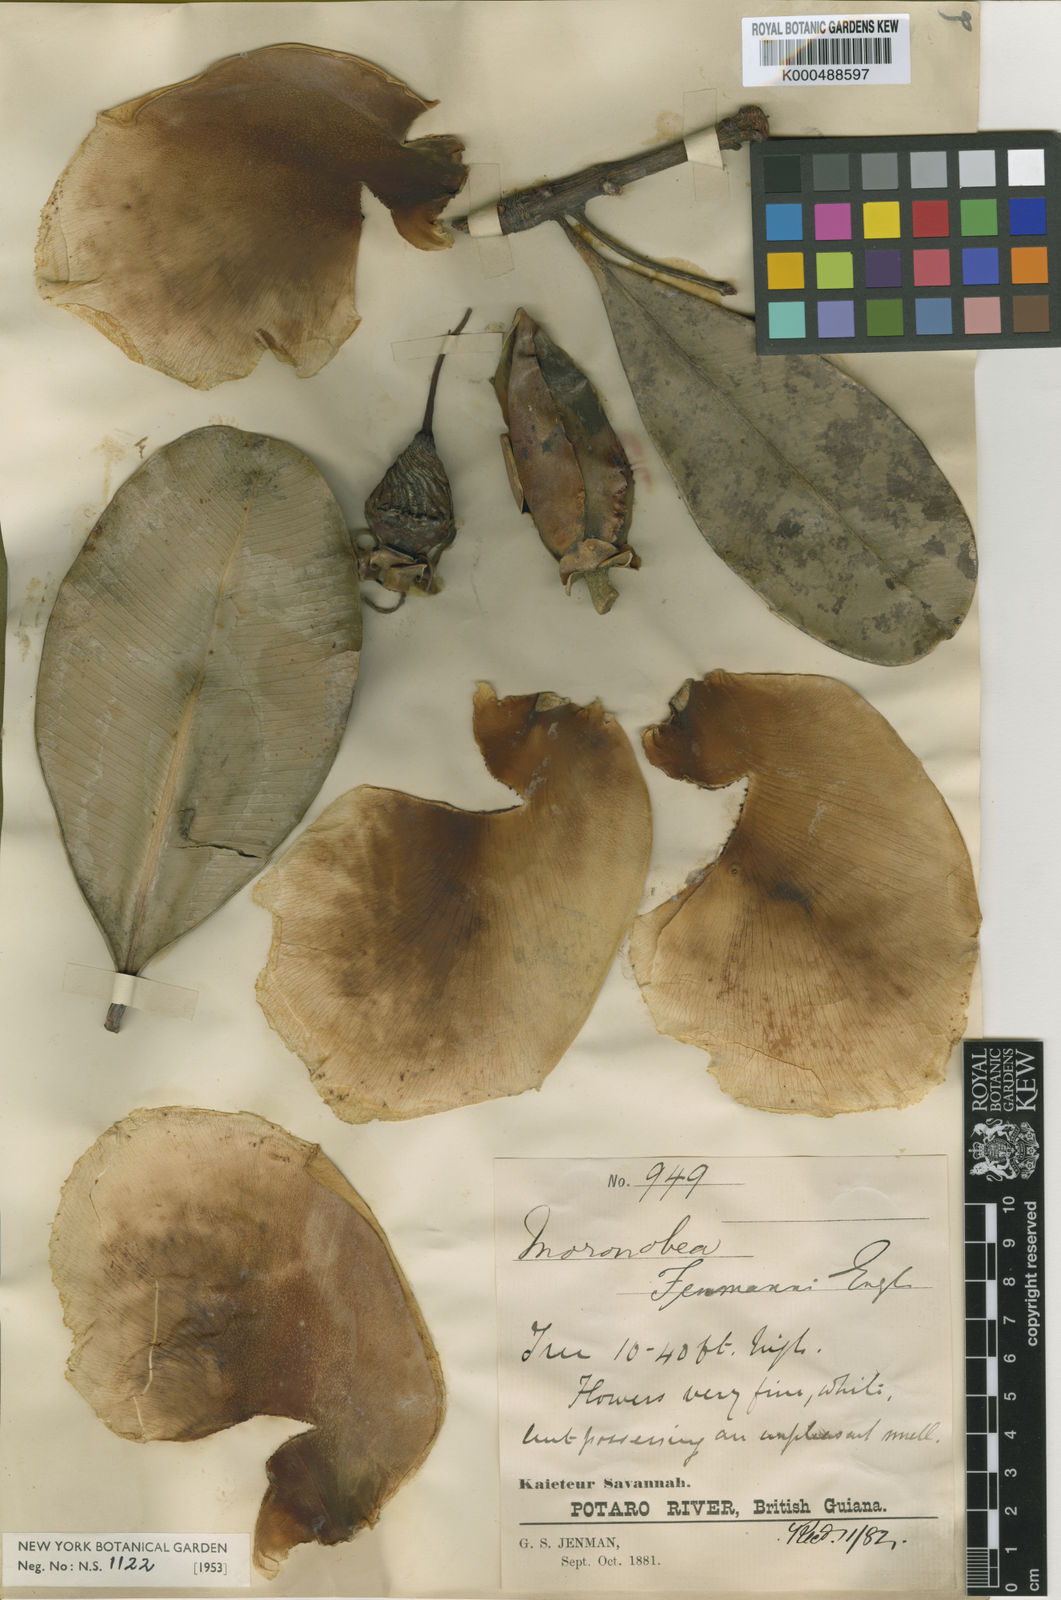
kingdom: Plantae
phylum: Tracheophyta
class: Magnoliopsida
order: Malpighiales
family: Clusiaceae
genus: Moronobea
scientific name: Moronobea jenmanii
